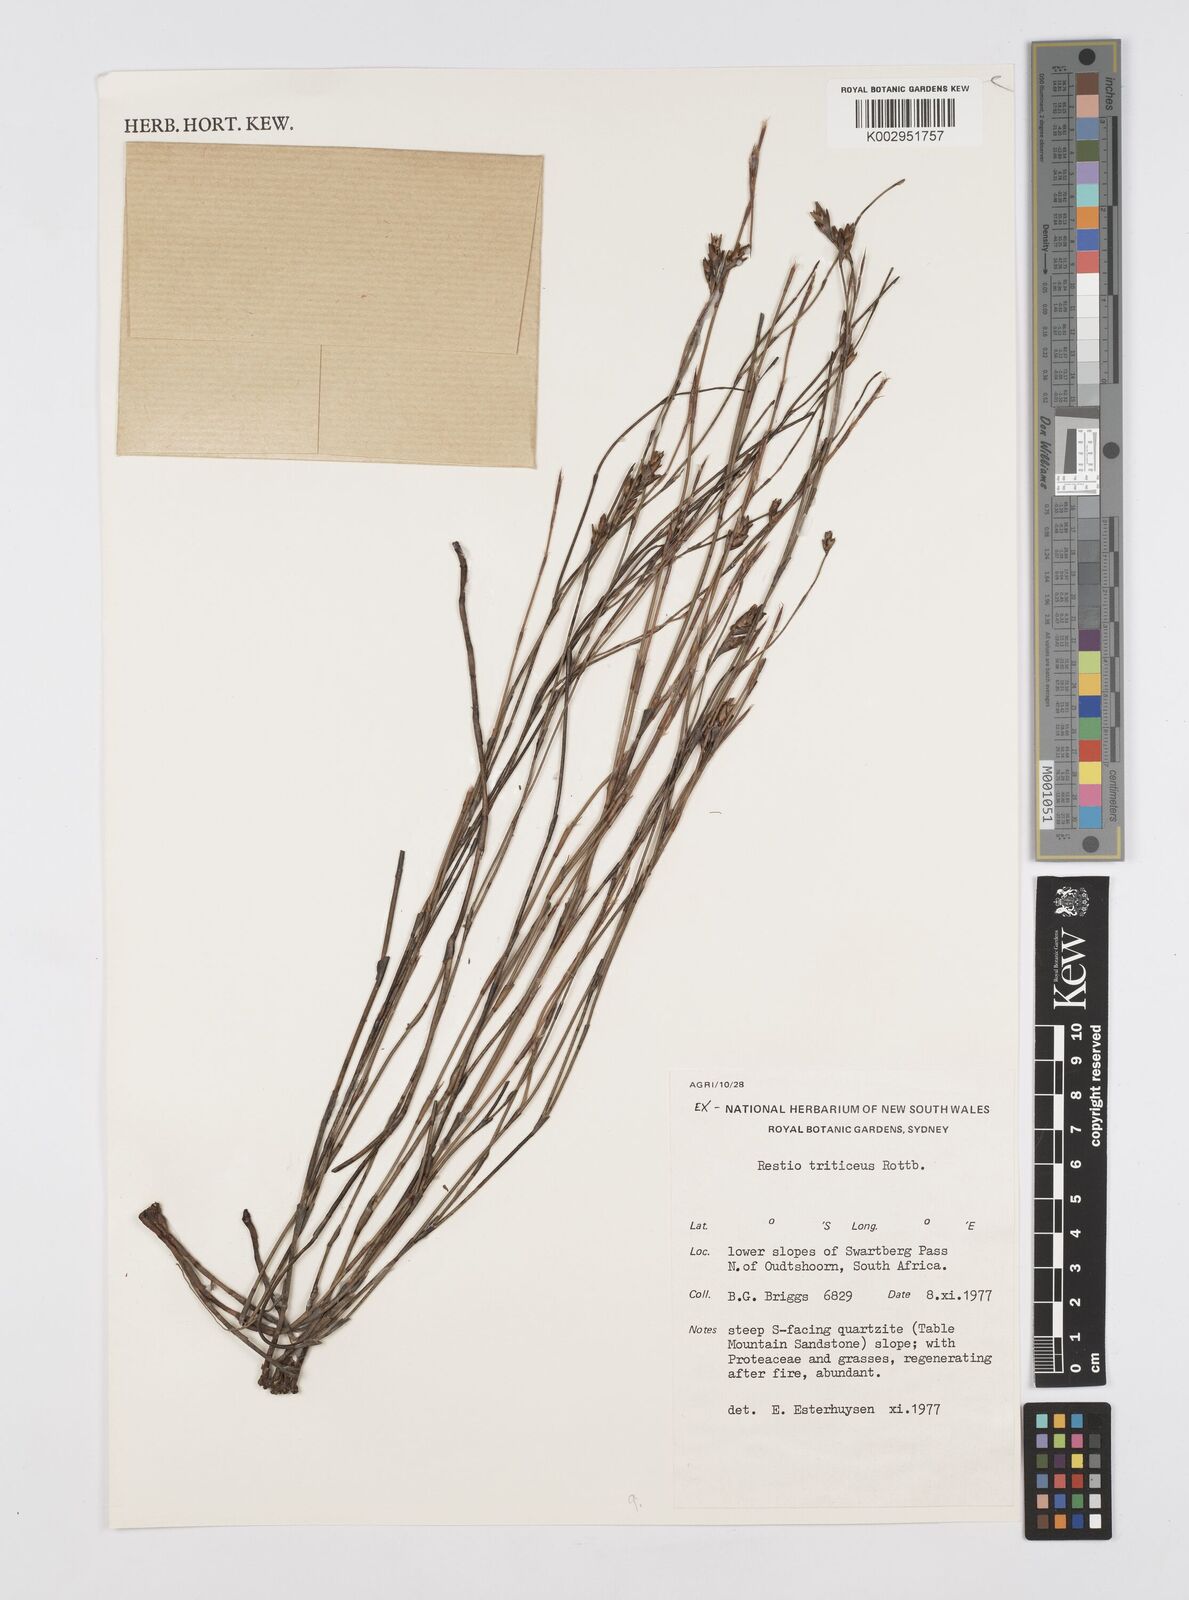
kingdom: Plantae
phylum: Tracheophyta
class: Liliopsida
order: Poales
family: Restionaceae
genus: Restio
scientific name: Restio triticeus
